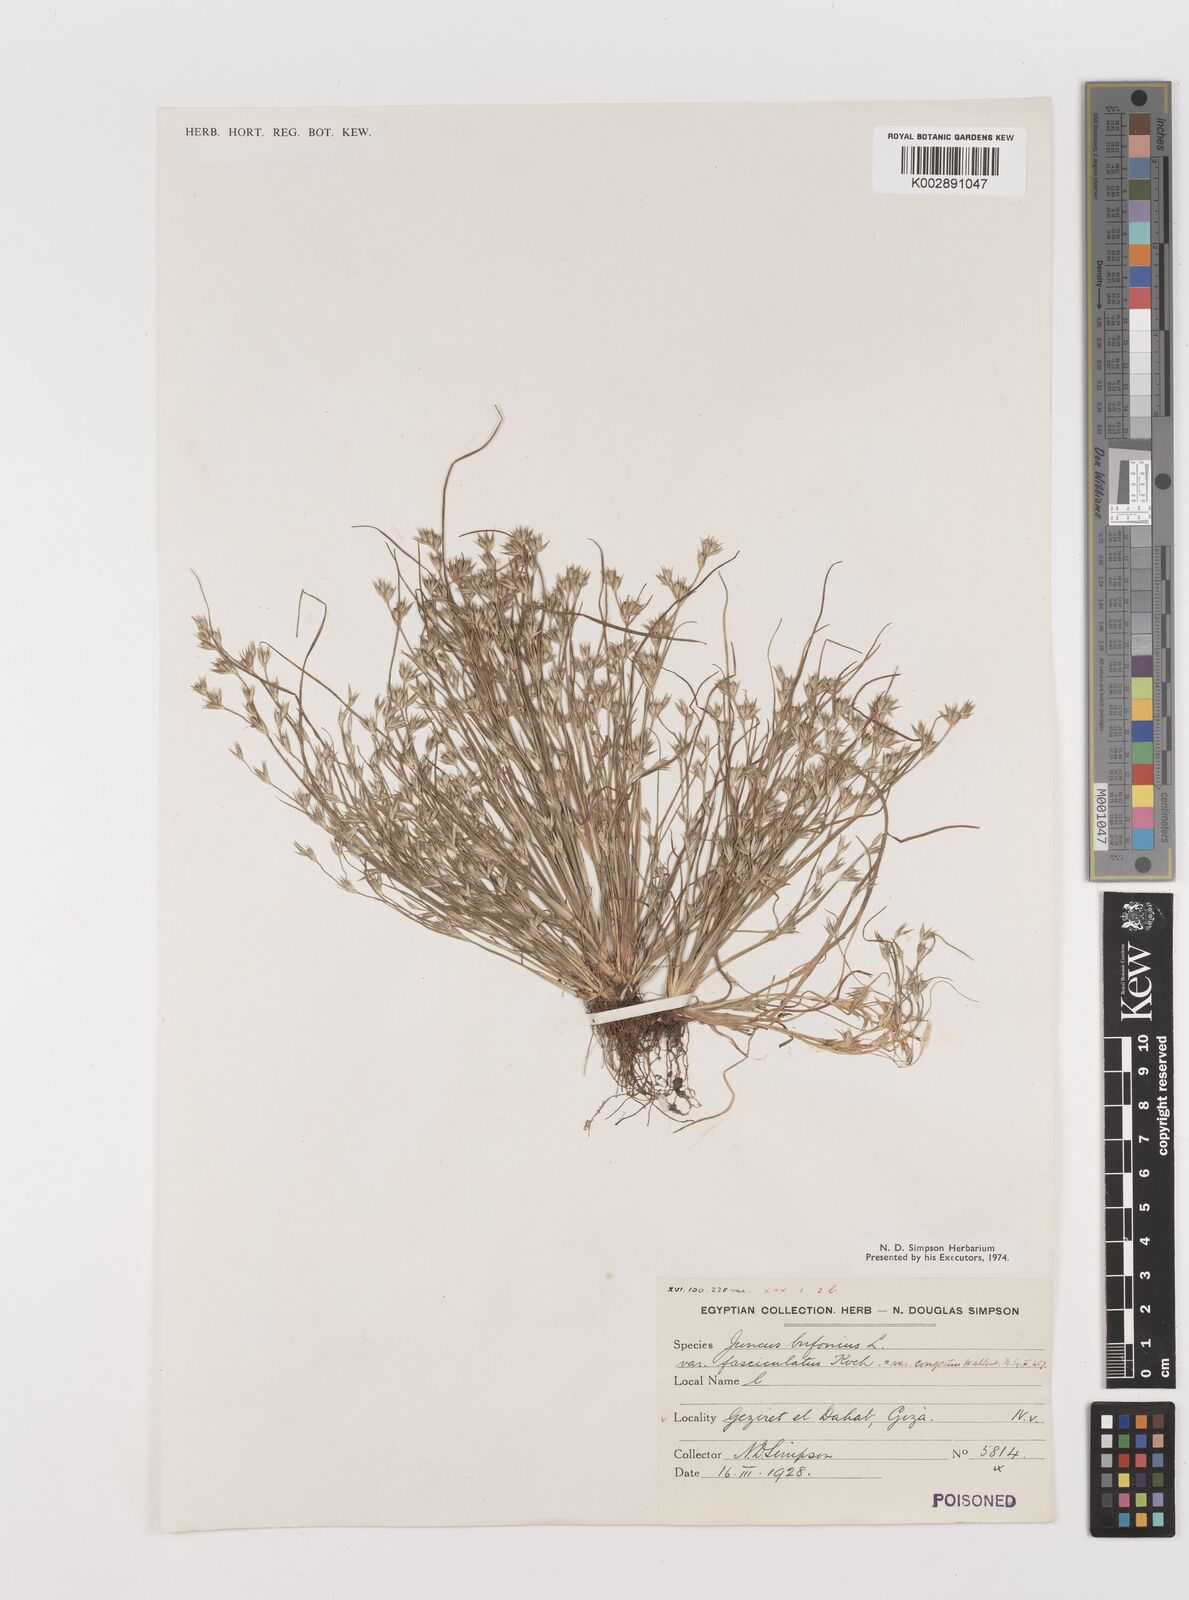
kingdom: Plantae
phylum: Tracheophyta
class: Liliopsida
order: Poales
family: Juncaceae
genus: Juncus
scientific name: Juncus bufonius
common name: Toad rush
